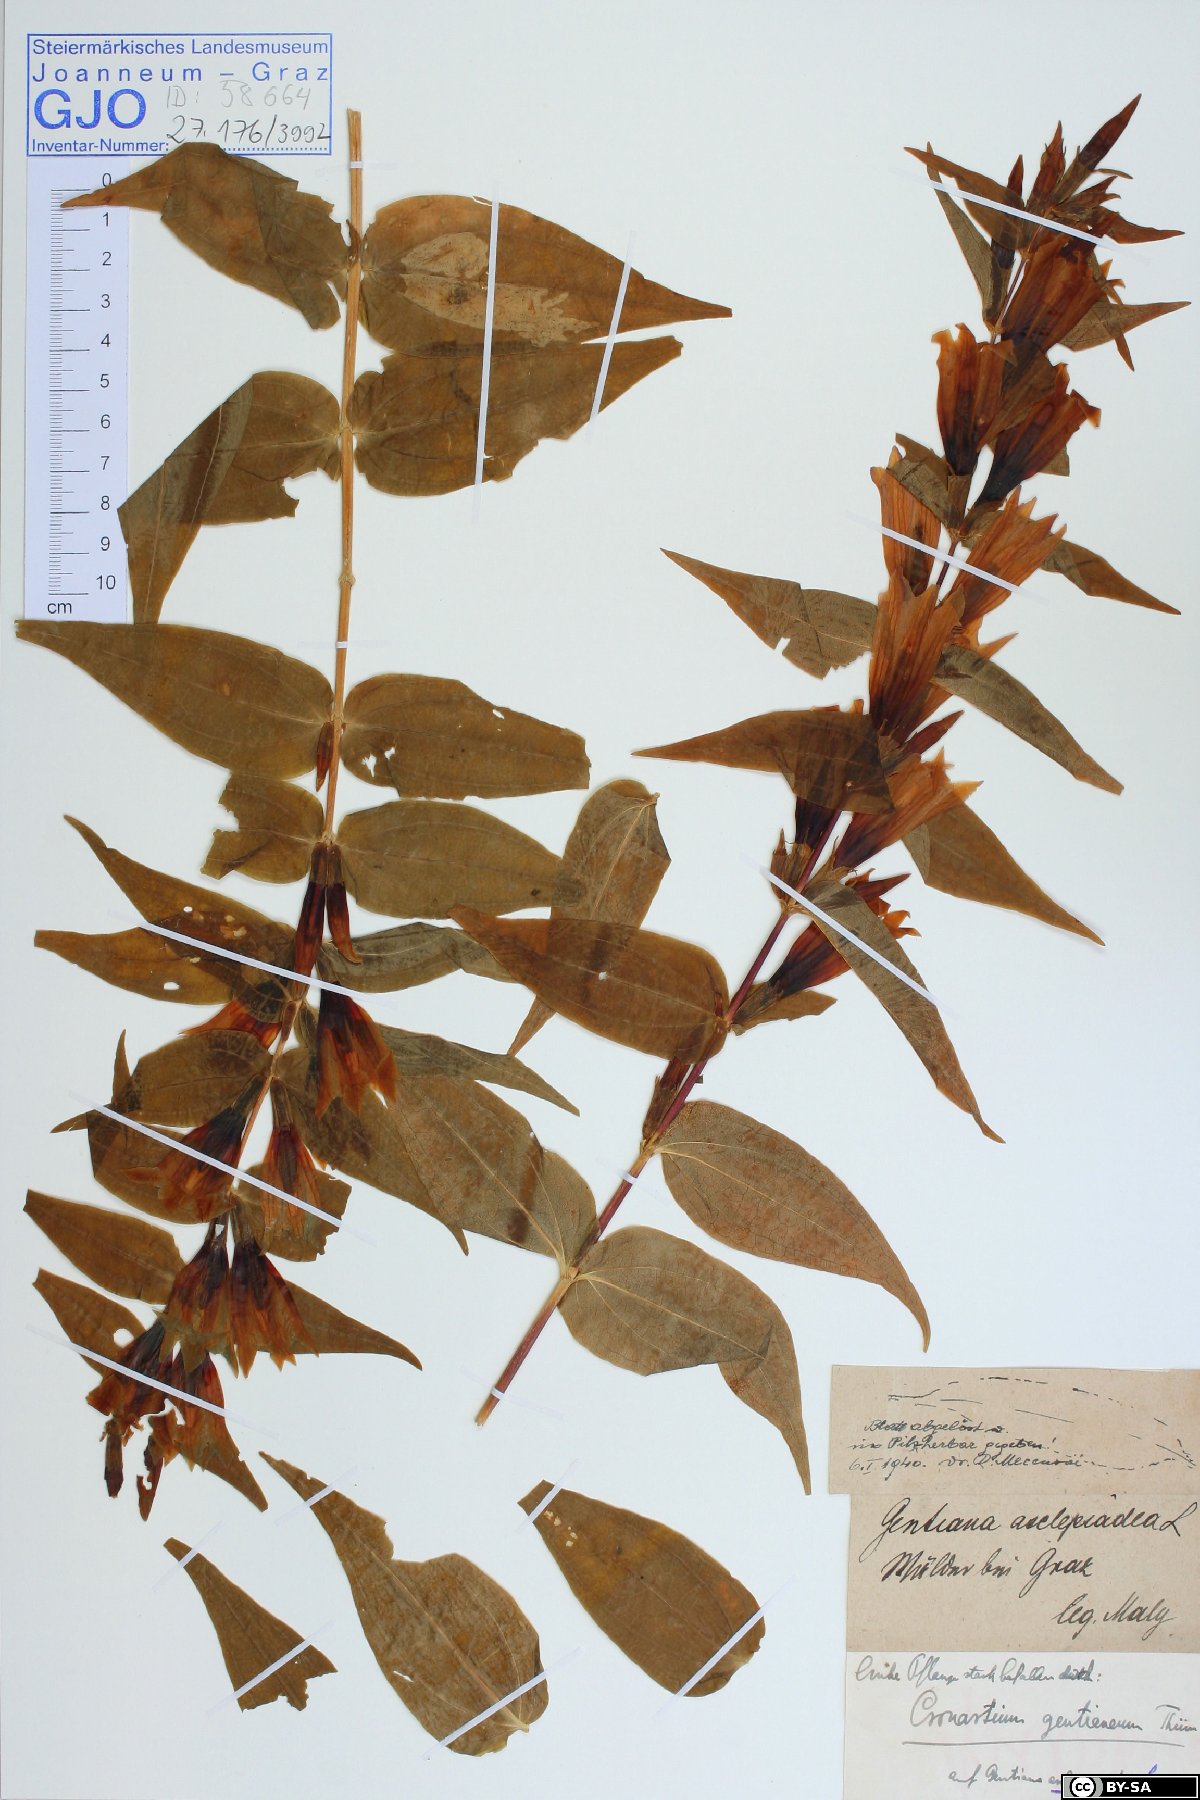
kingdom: Plantae
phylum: Tracheophyta
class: Magnoliopsida
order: Gentianales
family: Gentianaceae
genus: Gentiana
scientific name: Gentiana asclepiadea
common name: Willow gentian
